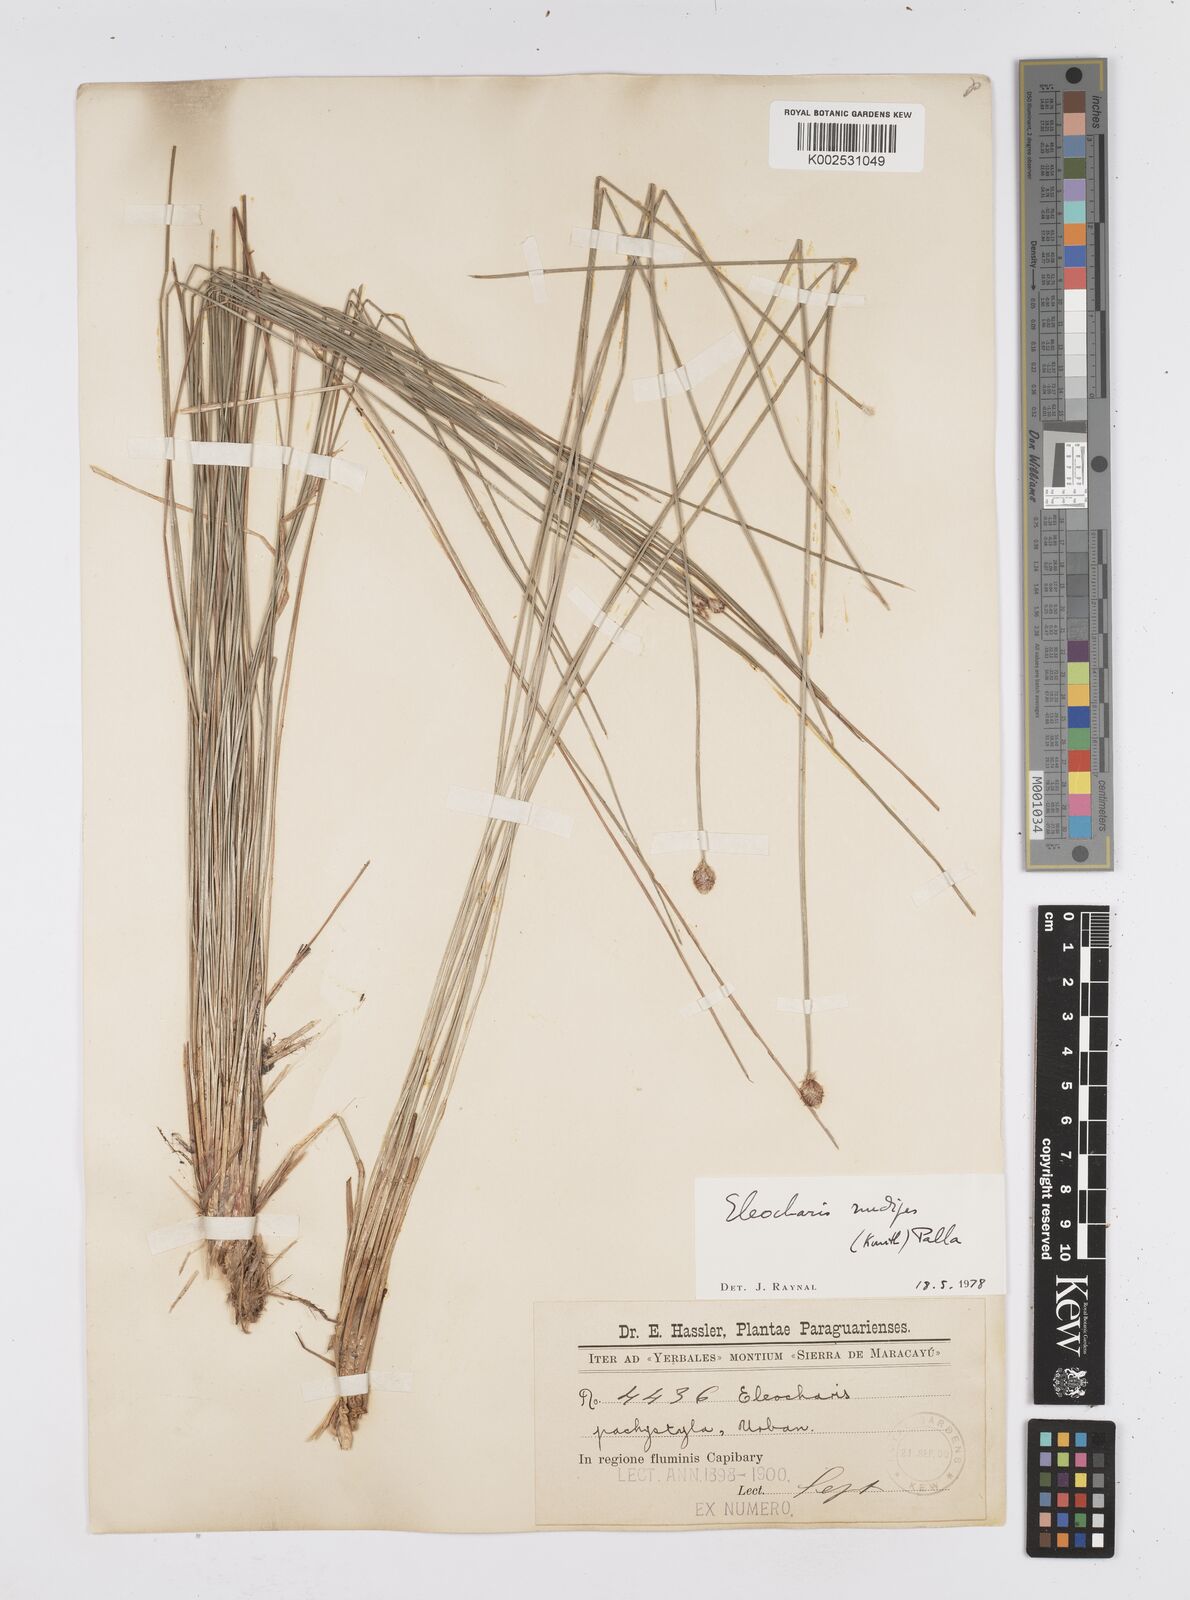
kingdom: Plantae
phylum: Tracheophyta
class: Liliopsida
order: Poales
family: Cyperaceae
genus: Eleocharis
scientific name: Eleocharis nudipes
